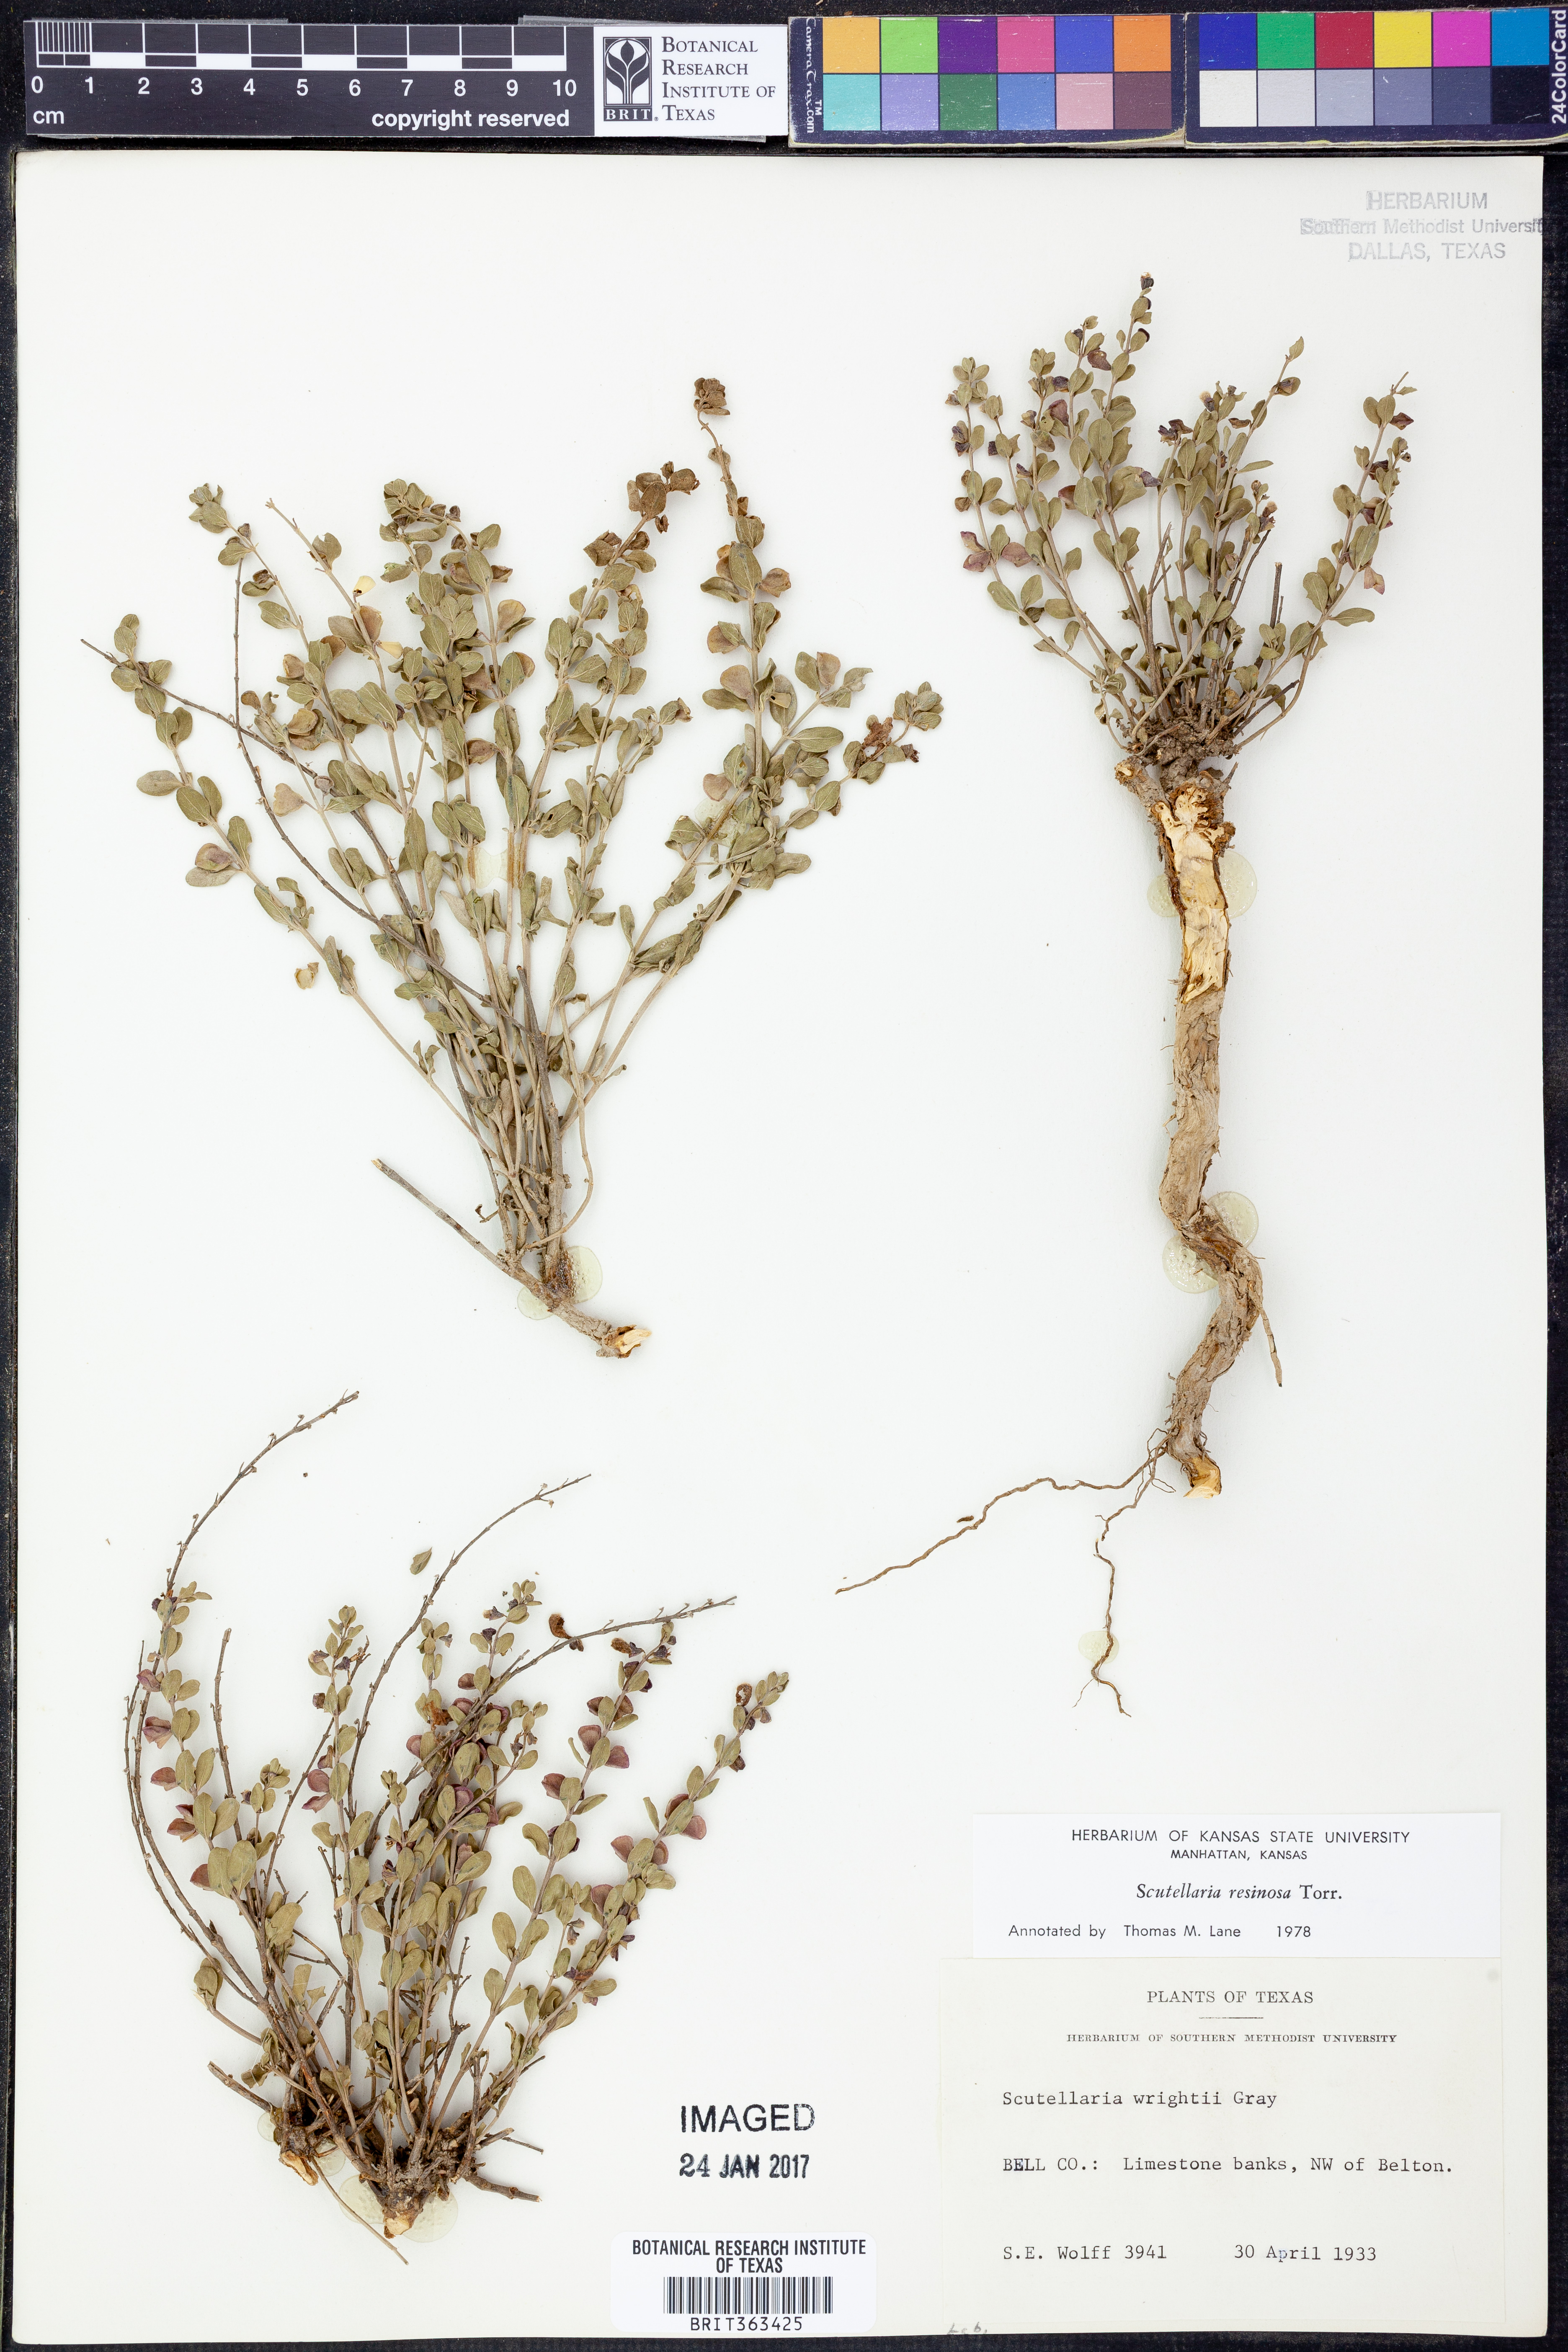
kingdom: Plantae
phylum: Tracheophyta
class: Magnoliopsida
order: Lamiales
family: Lamiaceae
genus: Scutellaria
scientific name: Scutellaria resinosa
